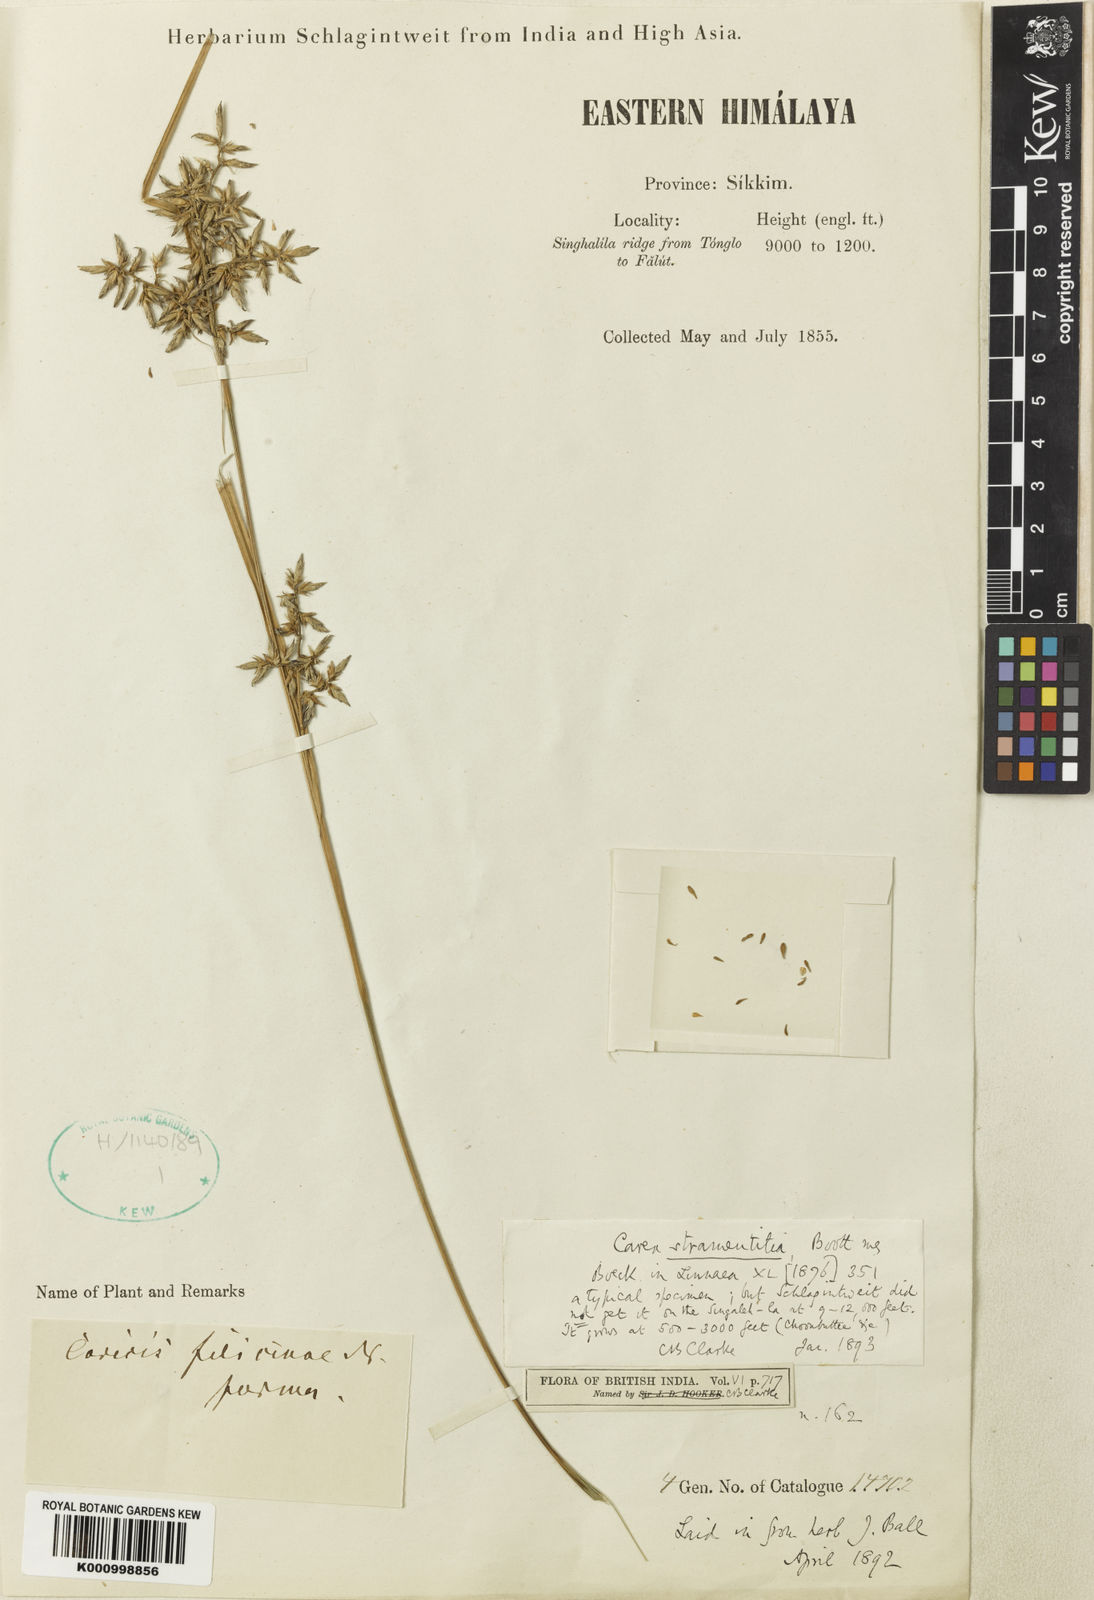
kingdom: Plantae
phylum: Tracheophyta
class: Liliopsida
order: Poales
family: Cyperaceae
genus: Carex
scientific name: Carex stramentitia
